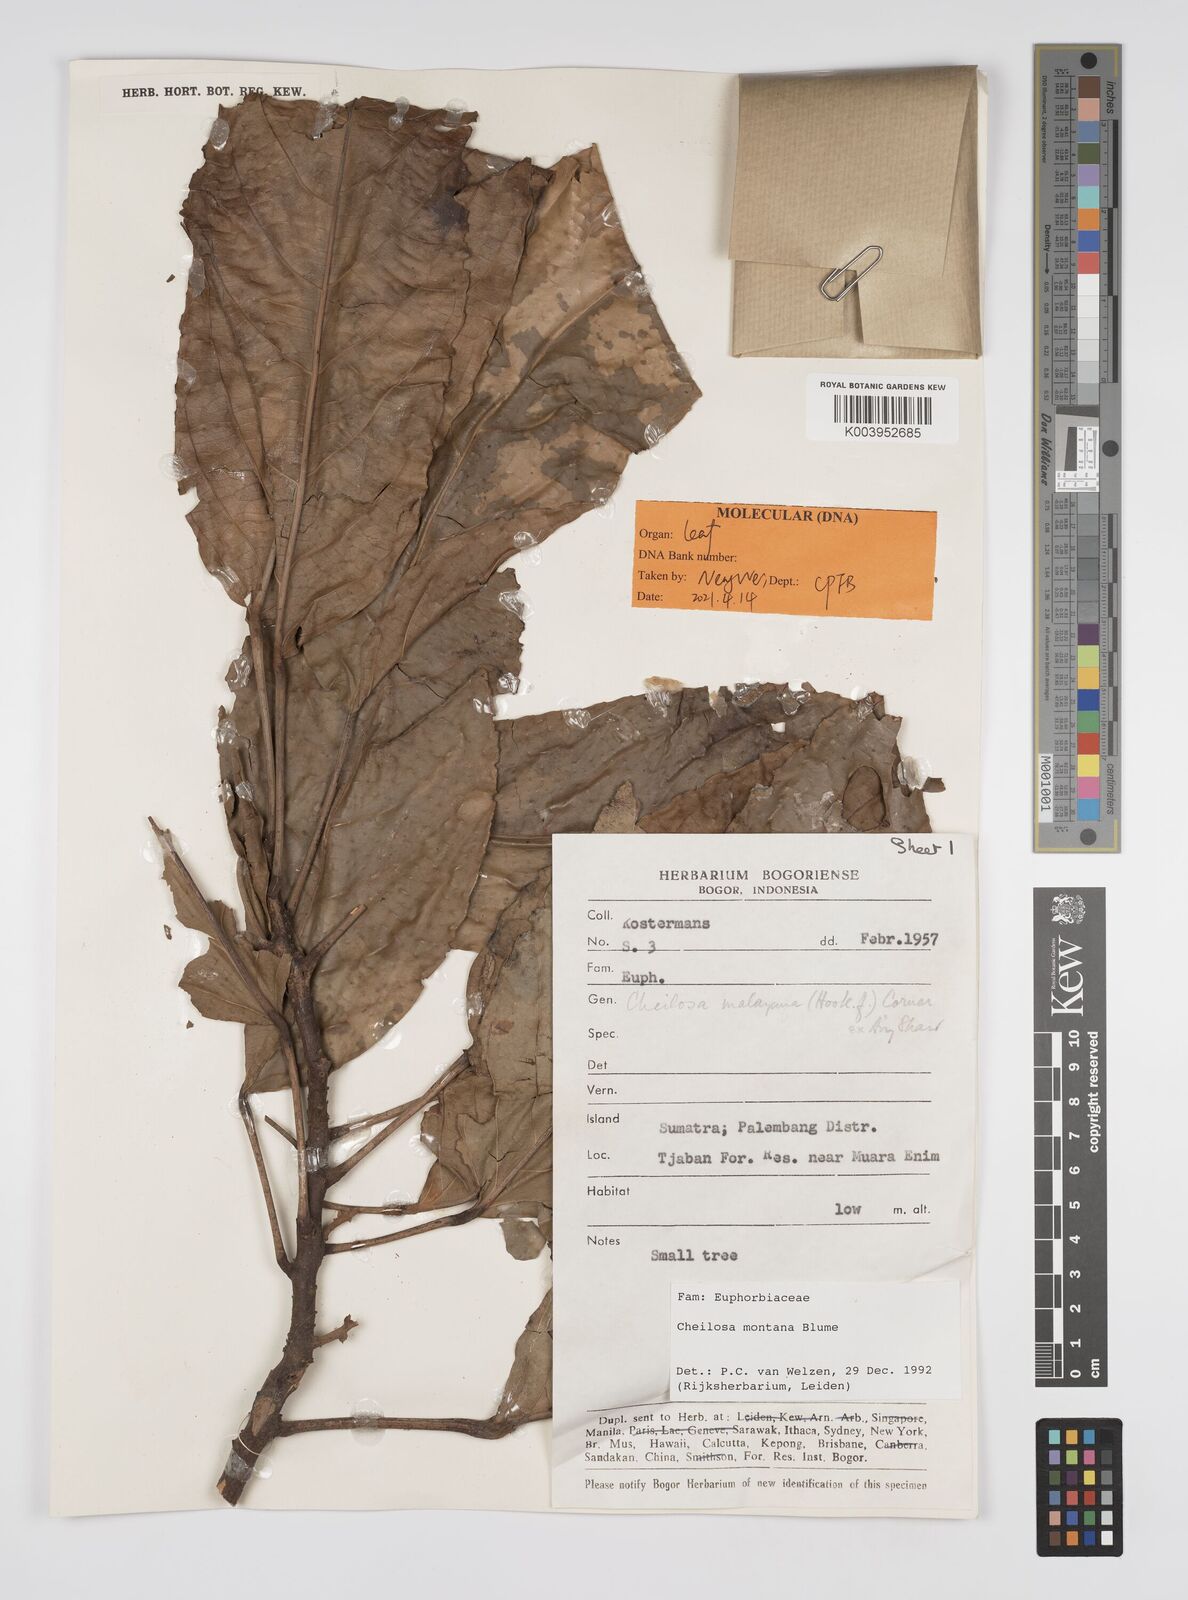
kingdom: Plantae
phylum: Tracheophyta
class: Magnoliopsida
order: Malpighiales
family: Euphorbiaceae
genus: Cheilosa
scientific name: Cheilosa montana
